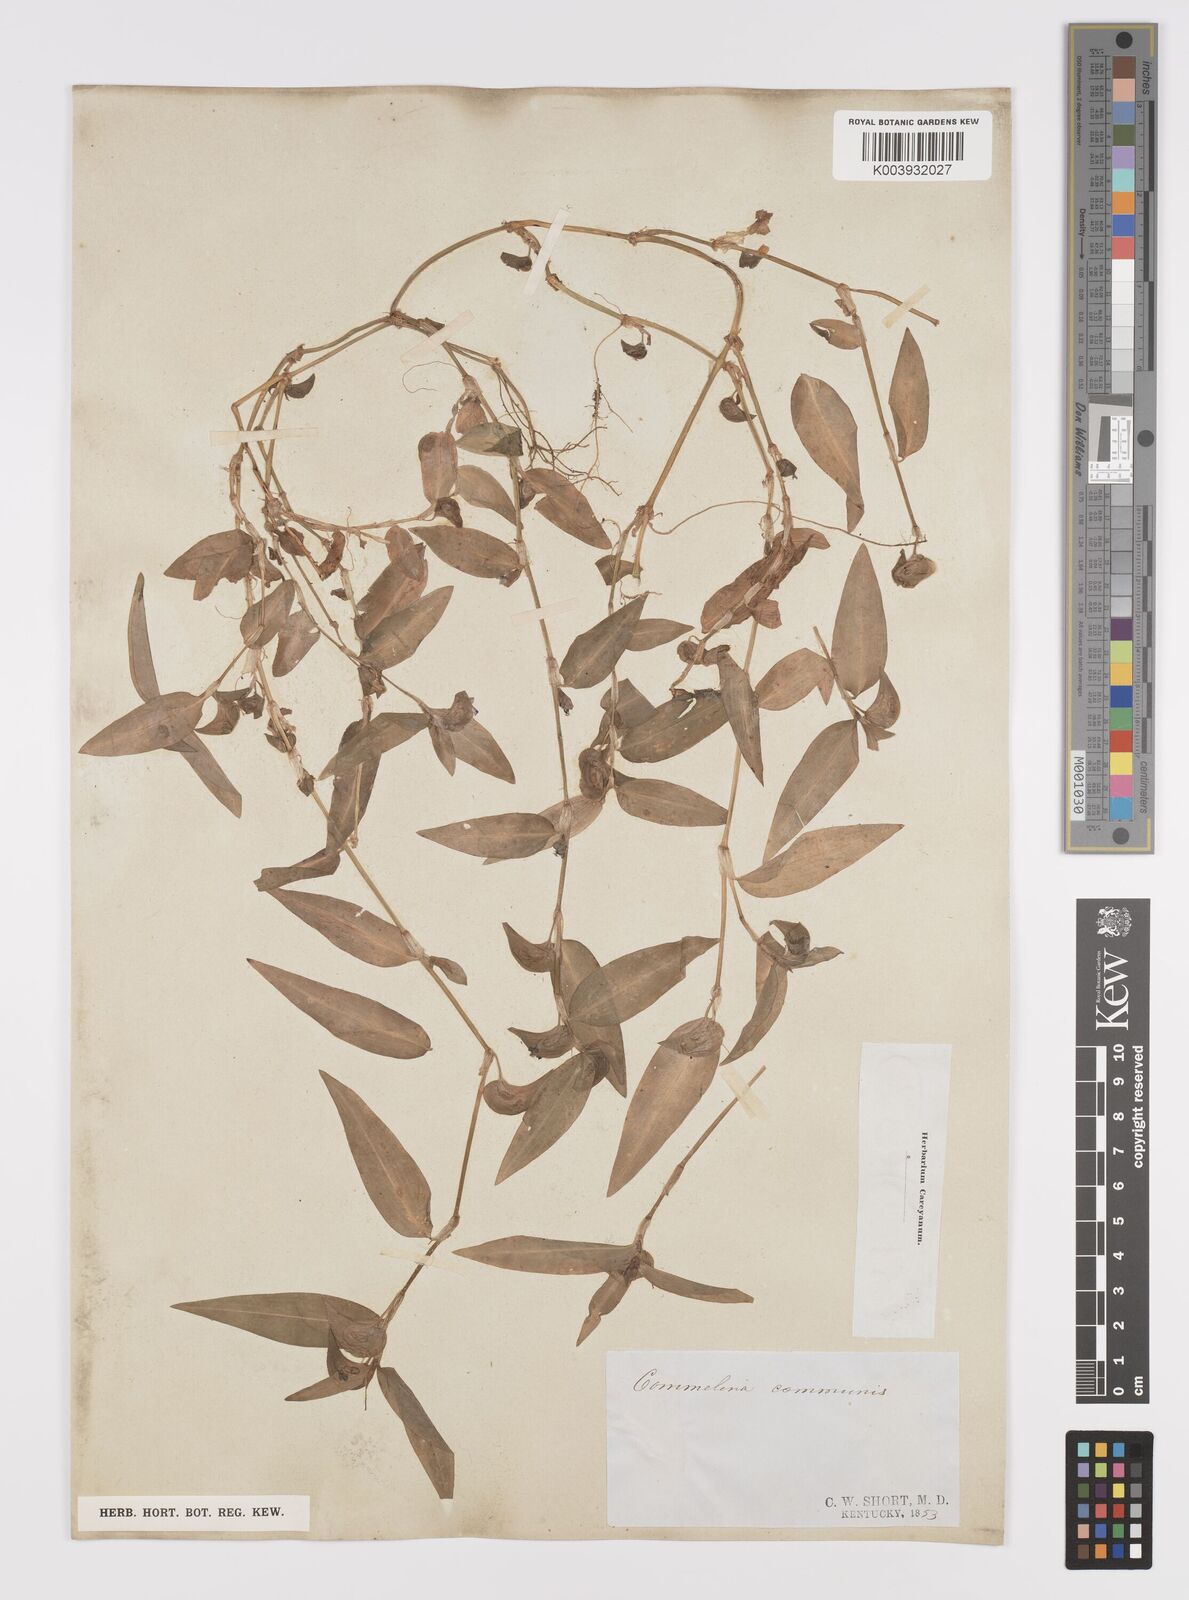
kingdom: Plantae
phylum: Tracheophyta
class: Liliopsida
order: Commelinales
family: Commelinaceae
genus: Commelina
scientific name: Commelina diffusa
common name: Climbing dayflower
